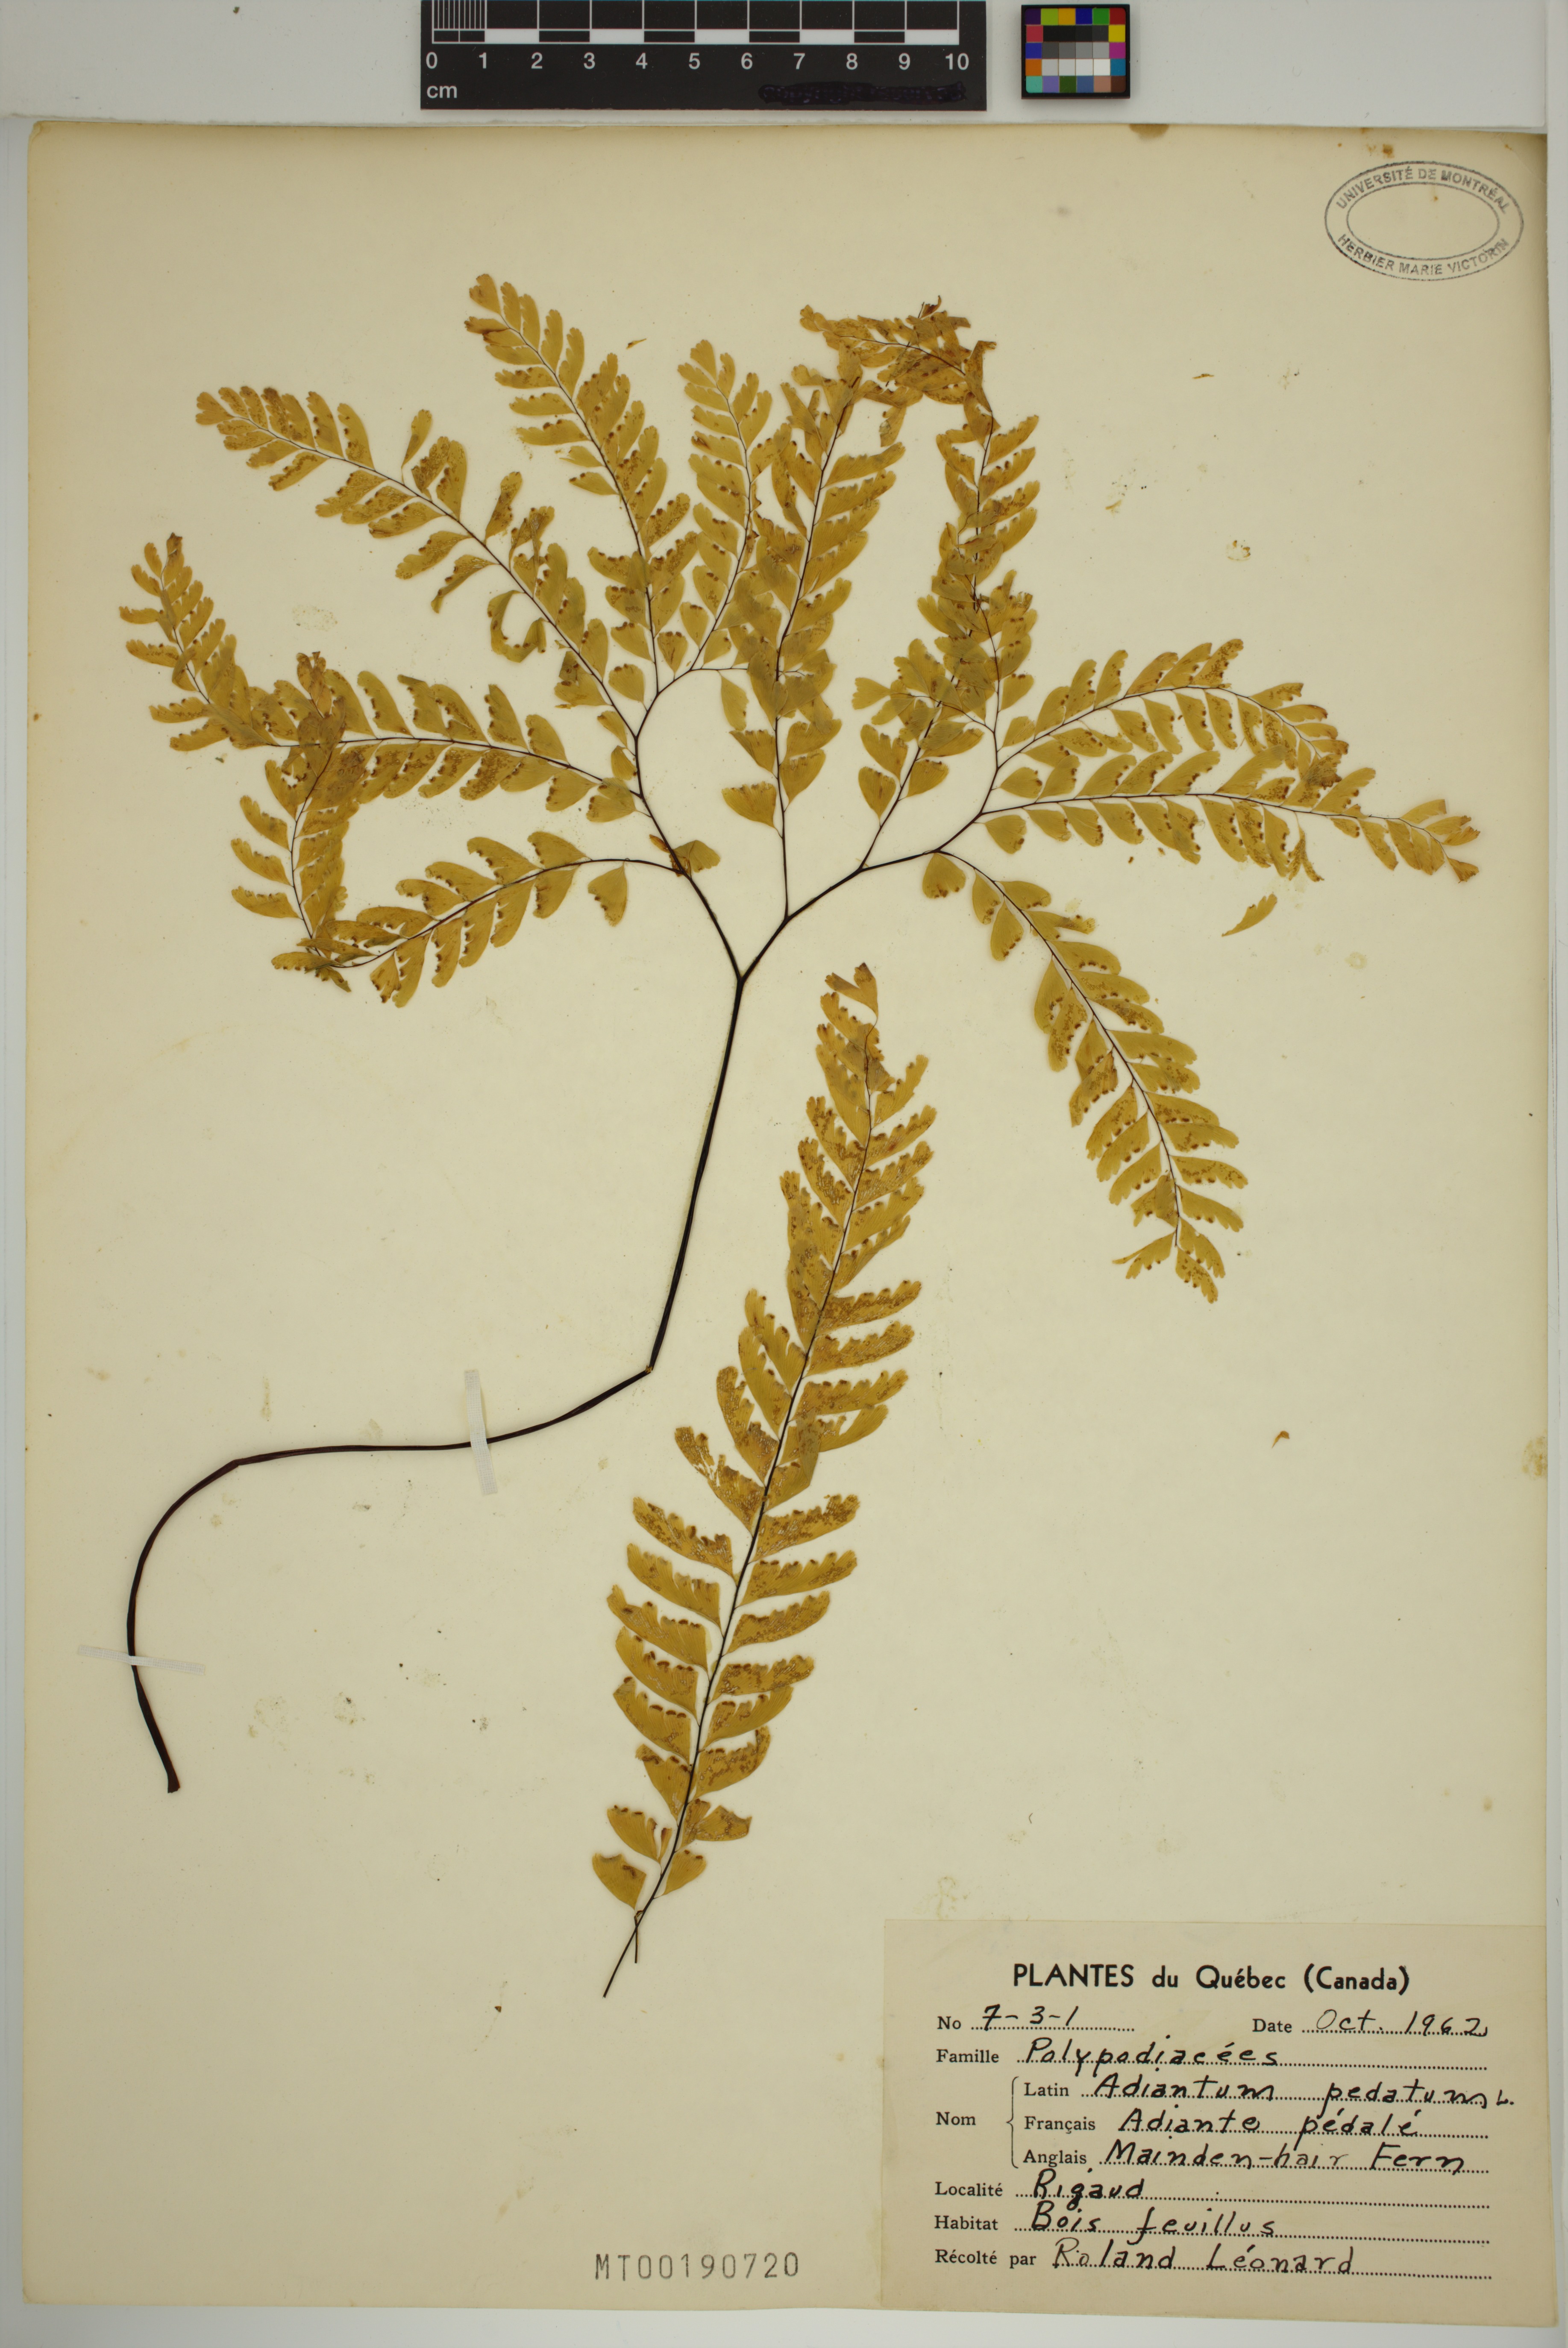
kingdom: Plantae
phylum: Tracheophyta
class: Polypodiopsida
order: Polypodiales
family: Pteridaceae
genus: Adiantum
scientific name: Adiantum pedatum
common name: Five-finger fern
